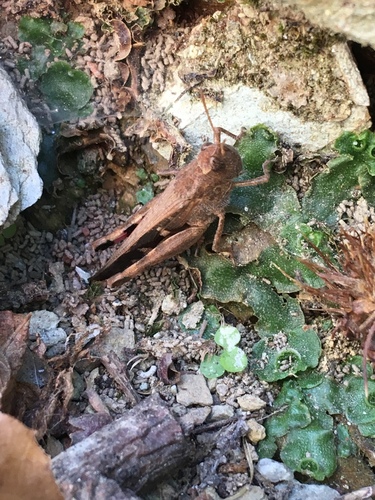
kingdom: Animalia
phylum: Arthropoda
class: Insecta
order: Orthoptera
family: Acrididae
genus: Aiolopus
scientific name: Aiolopus strepens
